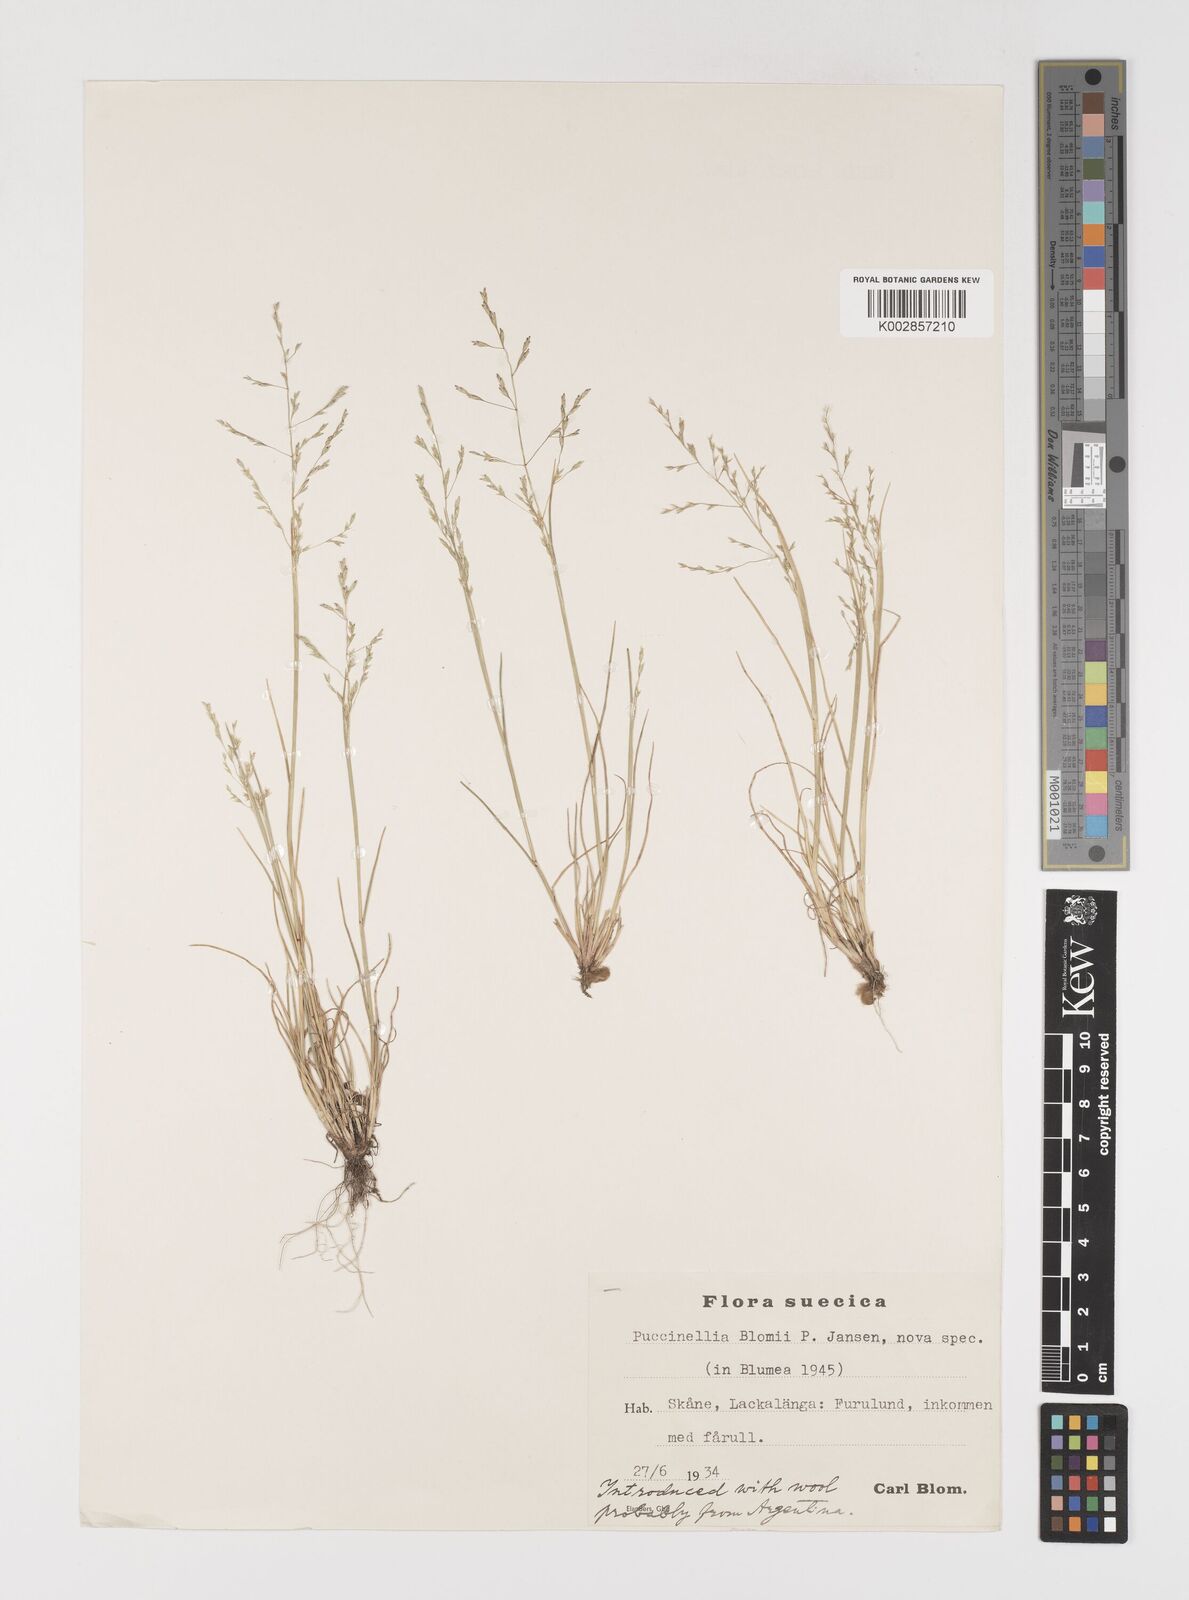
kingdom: Plantae
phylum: Tracheophyta
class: Liliopsida
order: Poales
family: Poaceae
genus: Puccinellia
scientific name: Puccinellia mendozina
